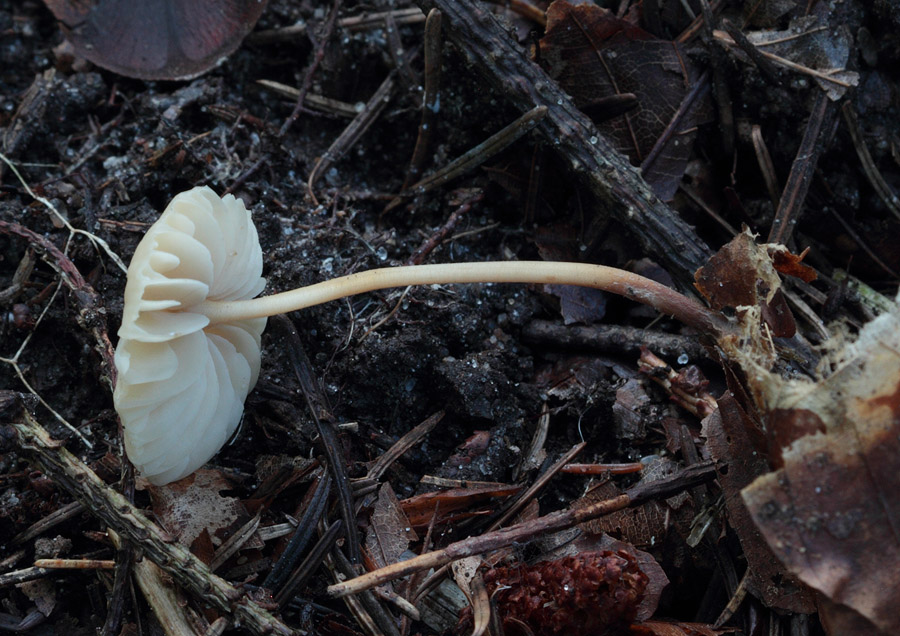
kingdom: Fungi
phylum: Basidiomycota
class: Agaricomycetes
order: Agaricales
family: Marasmiaceae
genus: Marasmius
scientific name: Marasmius torquescens
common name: filtfodet bruskhat
